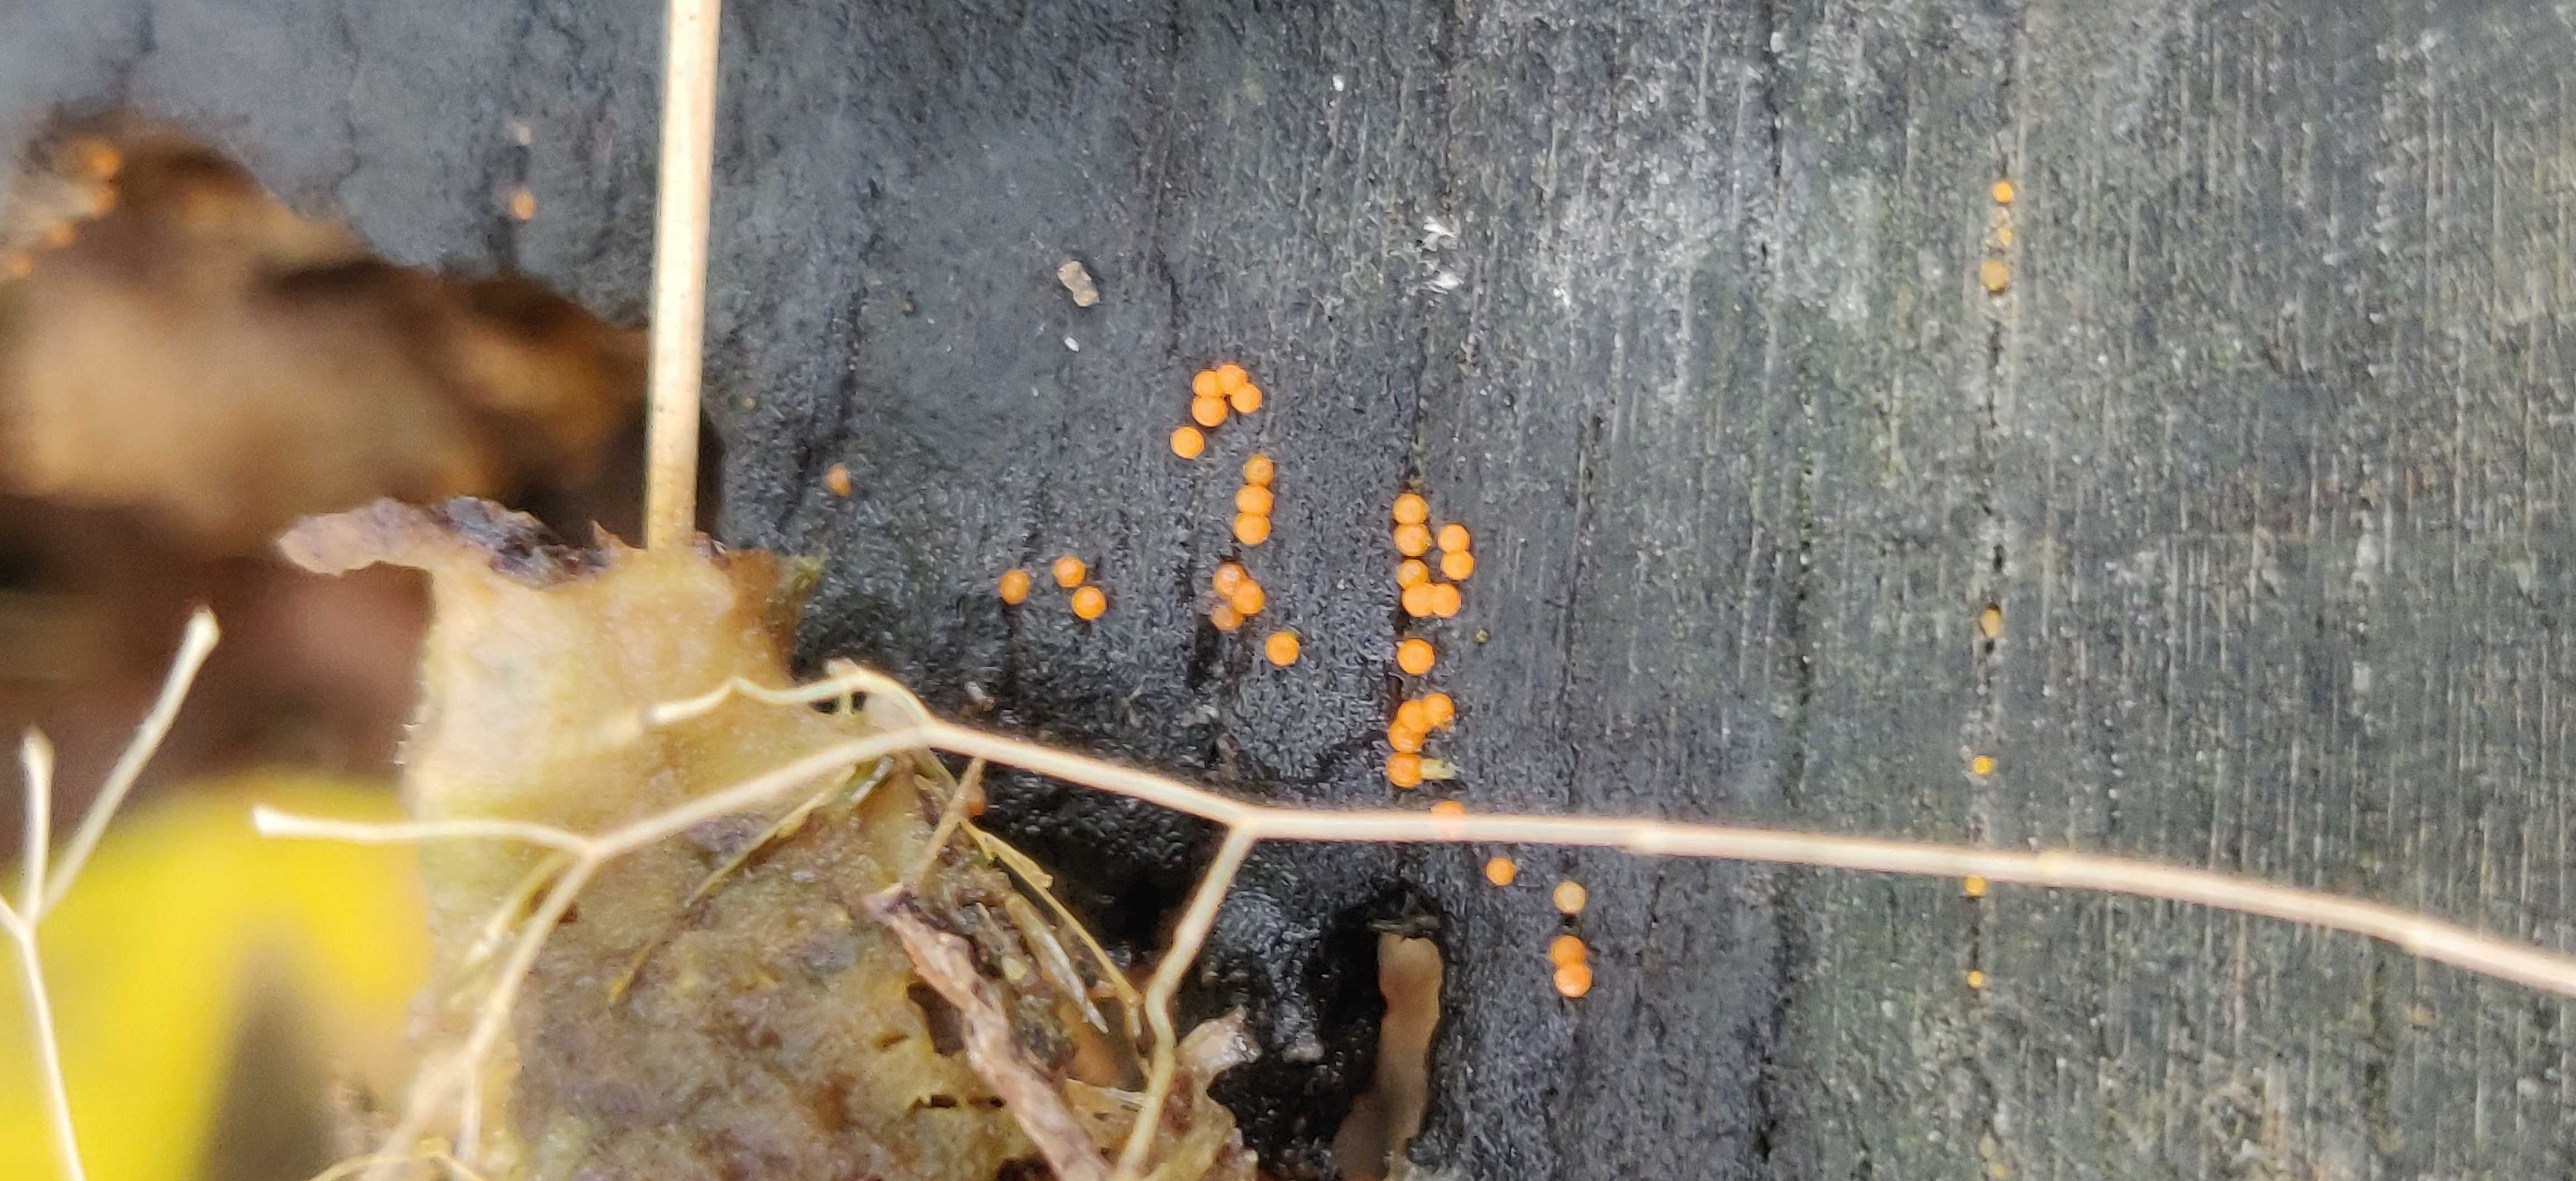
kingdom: Fungi
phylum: Ascomycota
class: Sordariomycetes
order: Hypocreales
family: Nectriaceae
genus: Hydropisphaera
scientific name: Hydropisphaera peziza
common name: skålformet gyldenkerne
